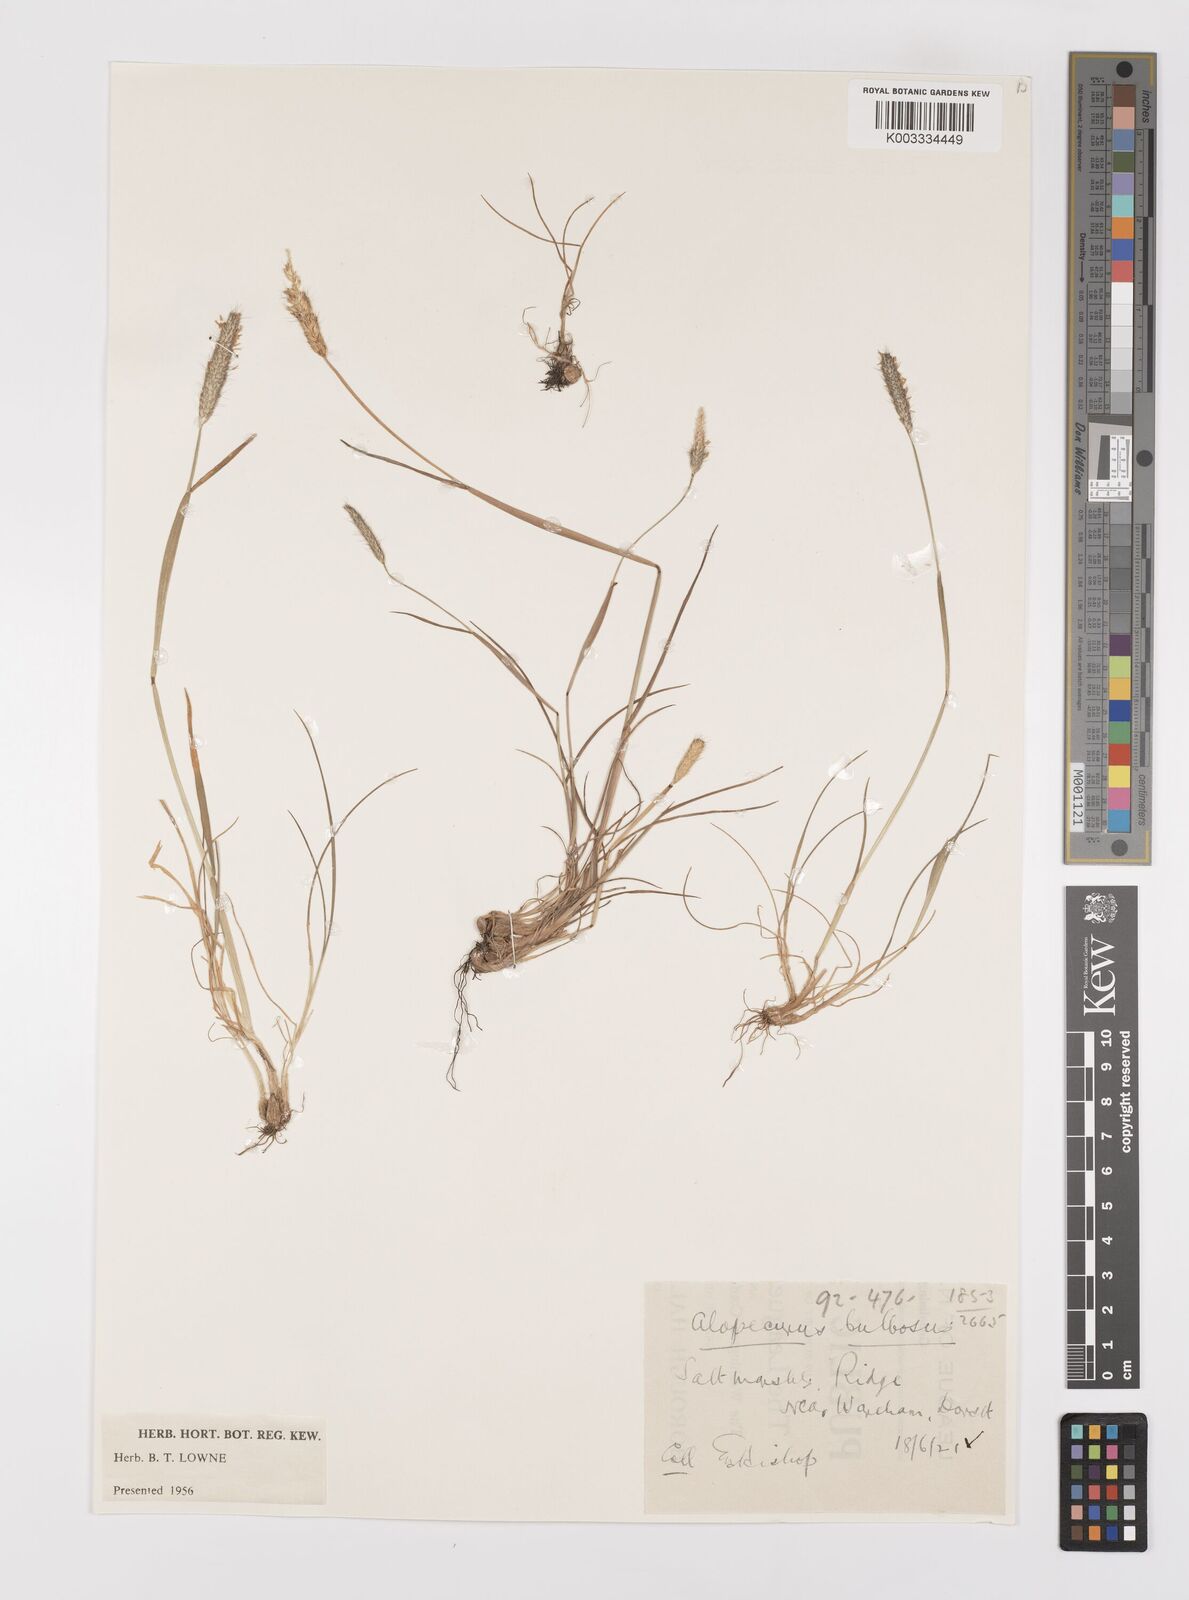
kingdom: Plantae
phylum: Tracheophyta
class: Liliopsida
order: Poales
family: Poaceae
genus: Alopecurus
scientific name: Alopecurus bulbosus
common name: Bulbous foxtail
